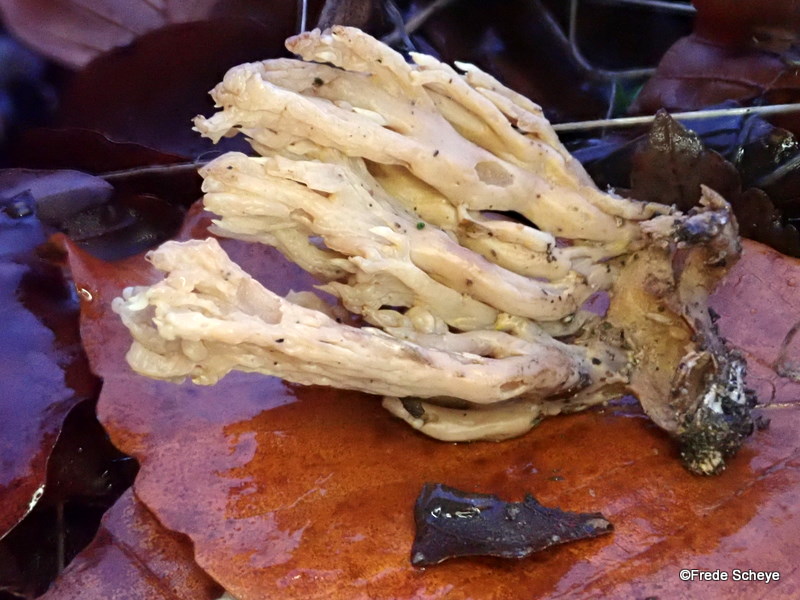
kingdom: Fungi
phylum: Basidiomycota
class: Agaricomycetes
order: Gomphales
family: Gomphaceae
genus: Ramaria
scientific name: Ramaria stricta
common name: rank koralsvamp
